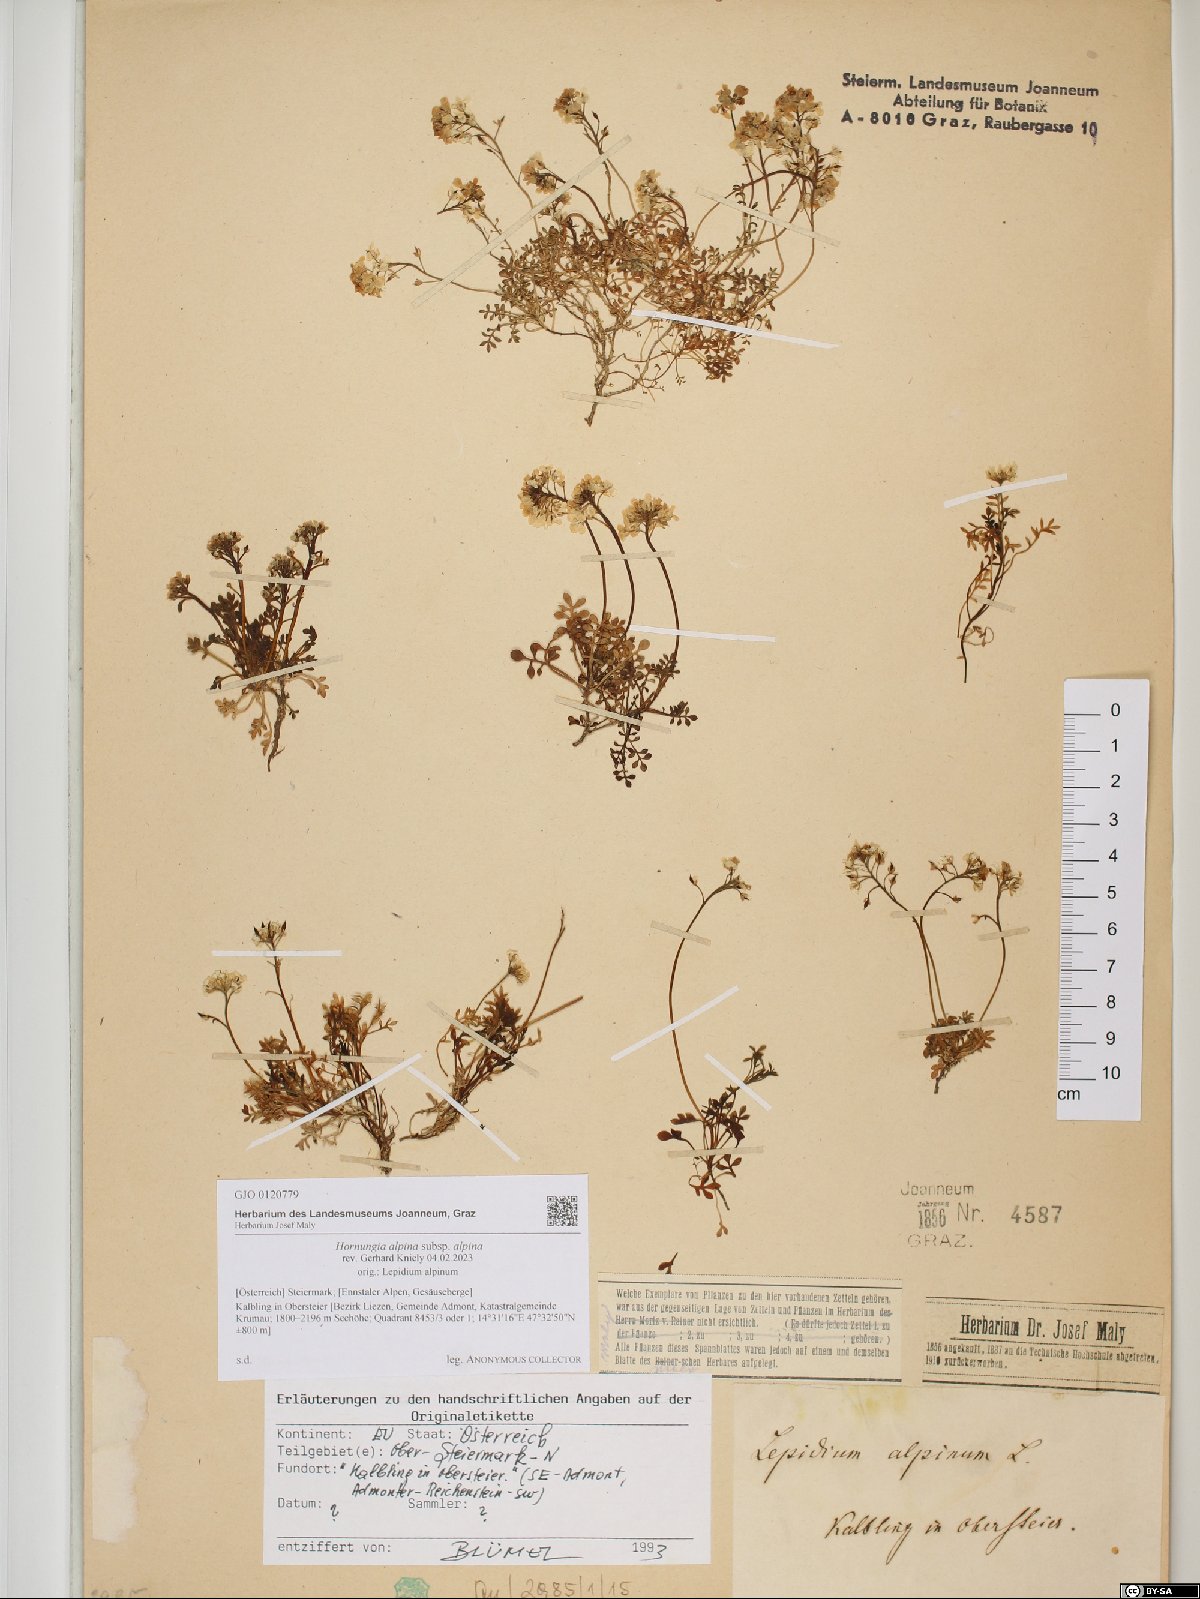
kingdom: Plantae
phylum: Tracheophyta
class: Magnoliopsida
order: Brassicales
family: Brassicaceae
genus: Hornungia
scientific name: Hornungia alpina
